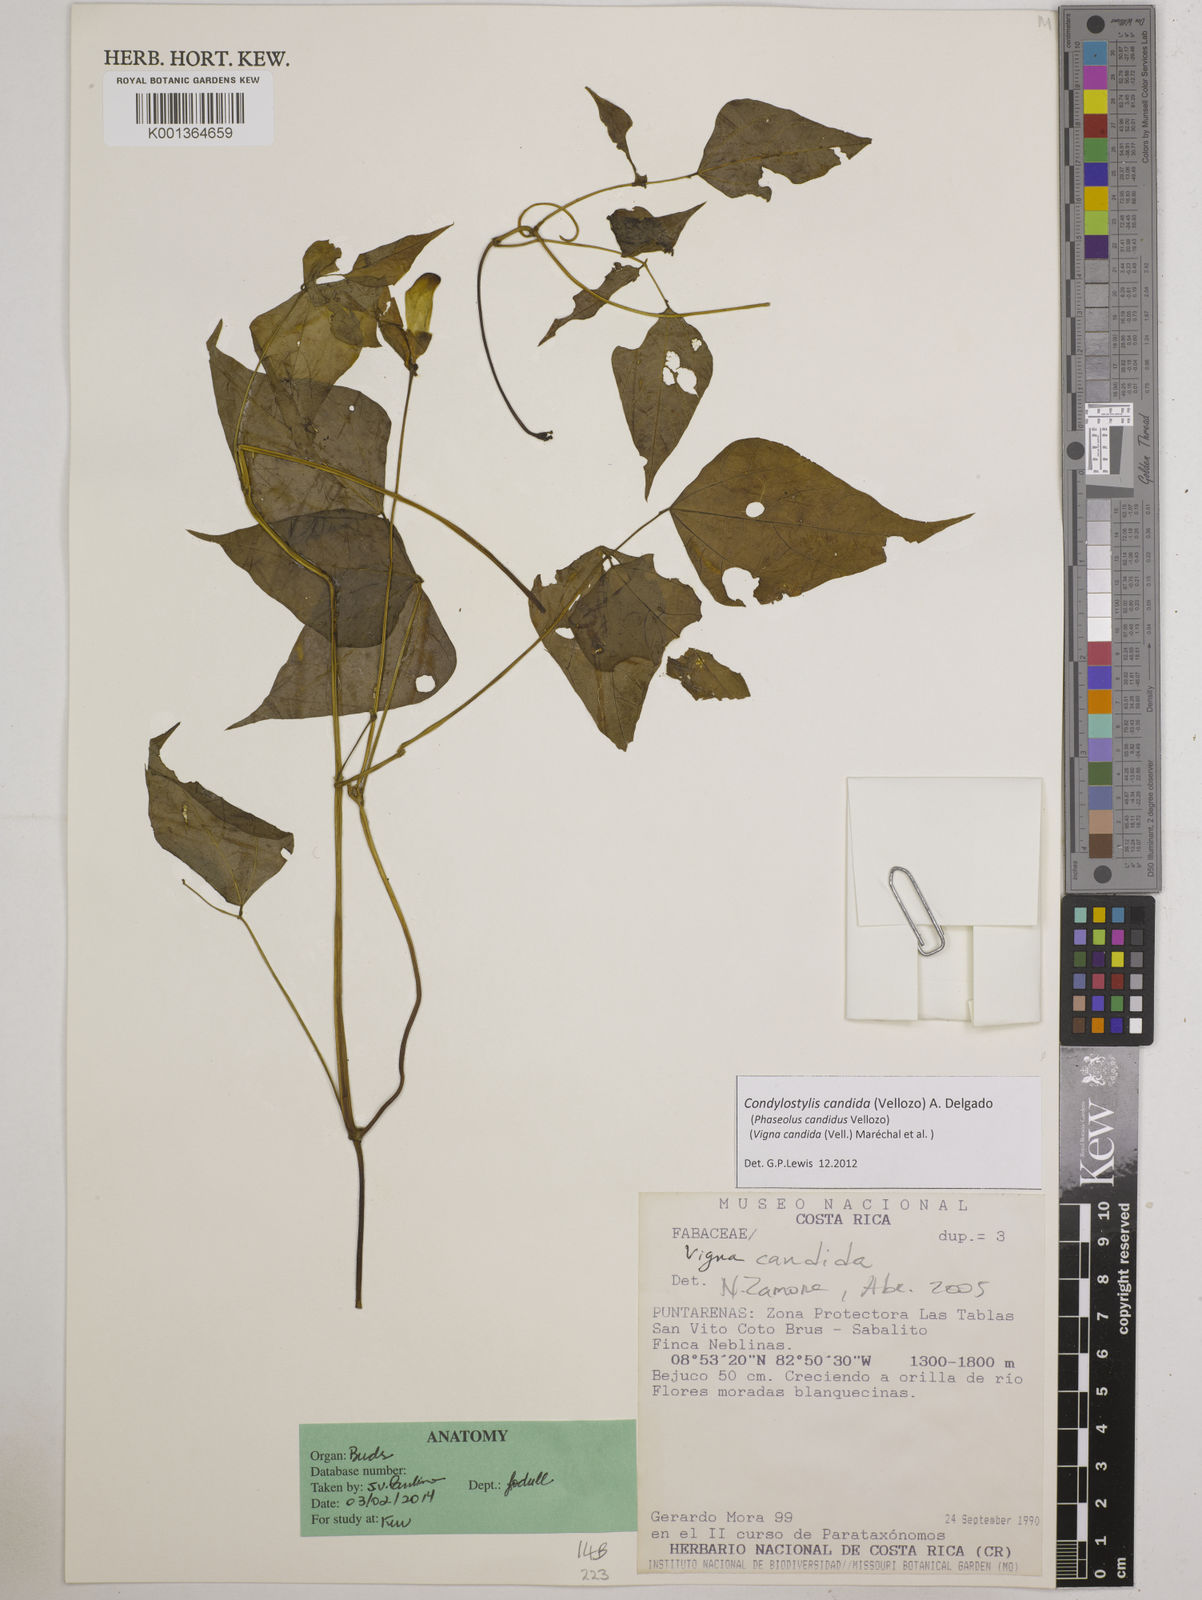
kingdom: Plantae
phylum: Tracheophyta
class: Magnoliopsida
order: Fabales
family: Fabaceae
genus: Condylostylis
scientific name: Condylostylis candida
